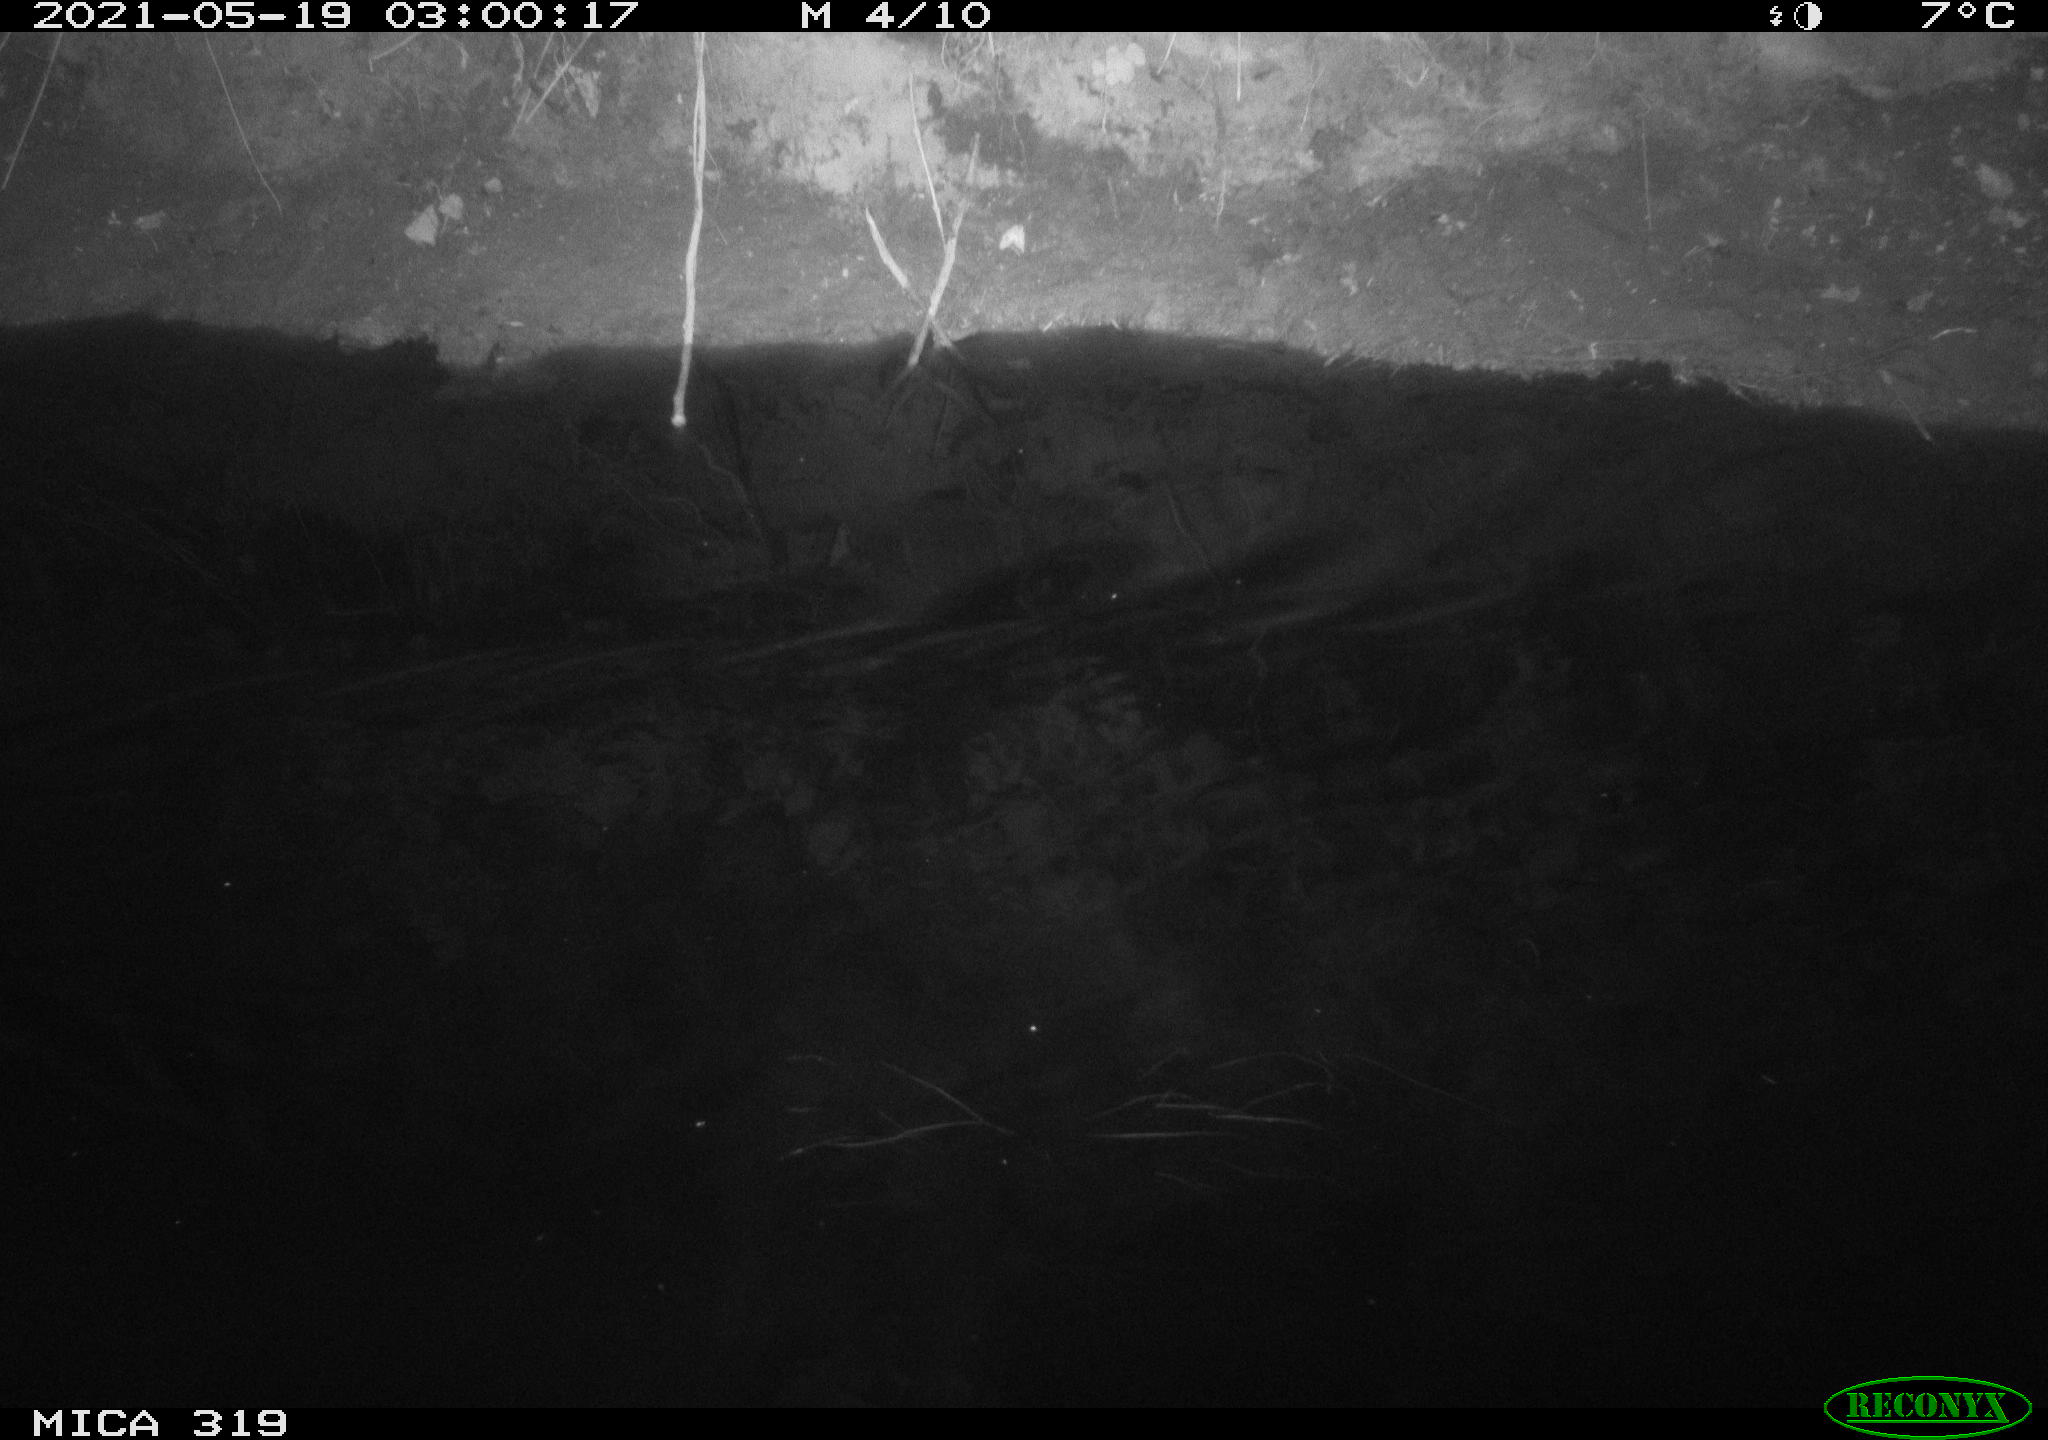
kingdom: Animalia
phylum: Chordata
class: Aves
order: Anseriformes
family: Anatidae
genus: Anas
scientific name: Anas platyrhynchos
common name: Mallard
